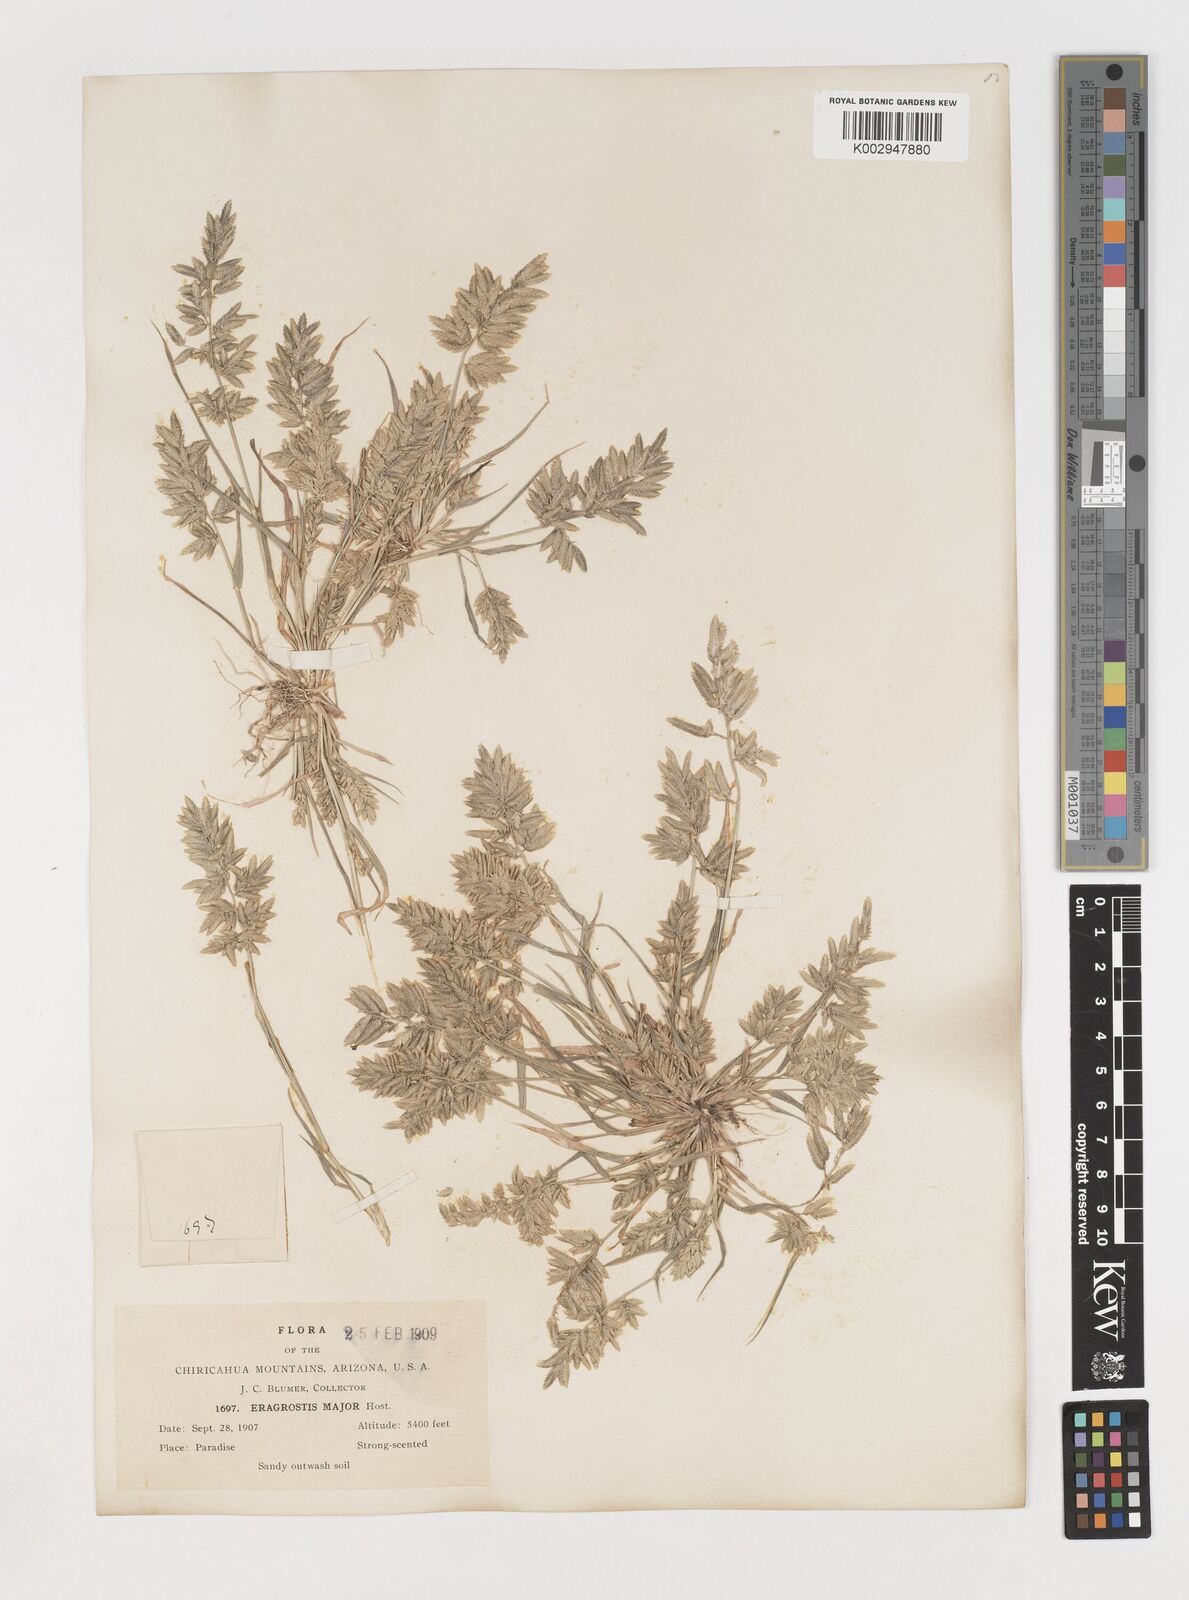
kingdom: Plantae
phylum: Tracheophyta
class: Liliopsida
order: Poales
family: Poaceae
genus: Eragrostis
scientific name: Eragrostis cilianensis
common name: Stinkgrass
